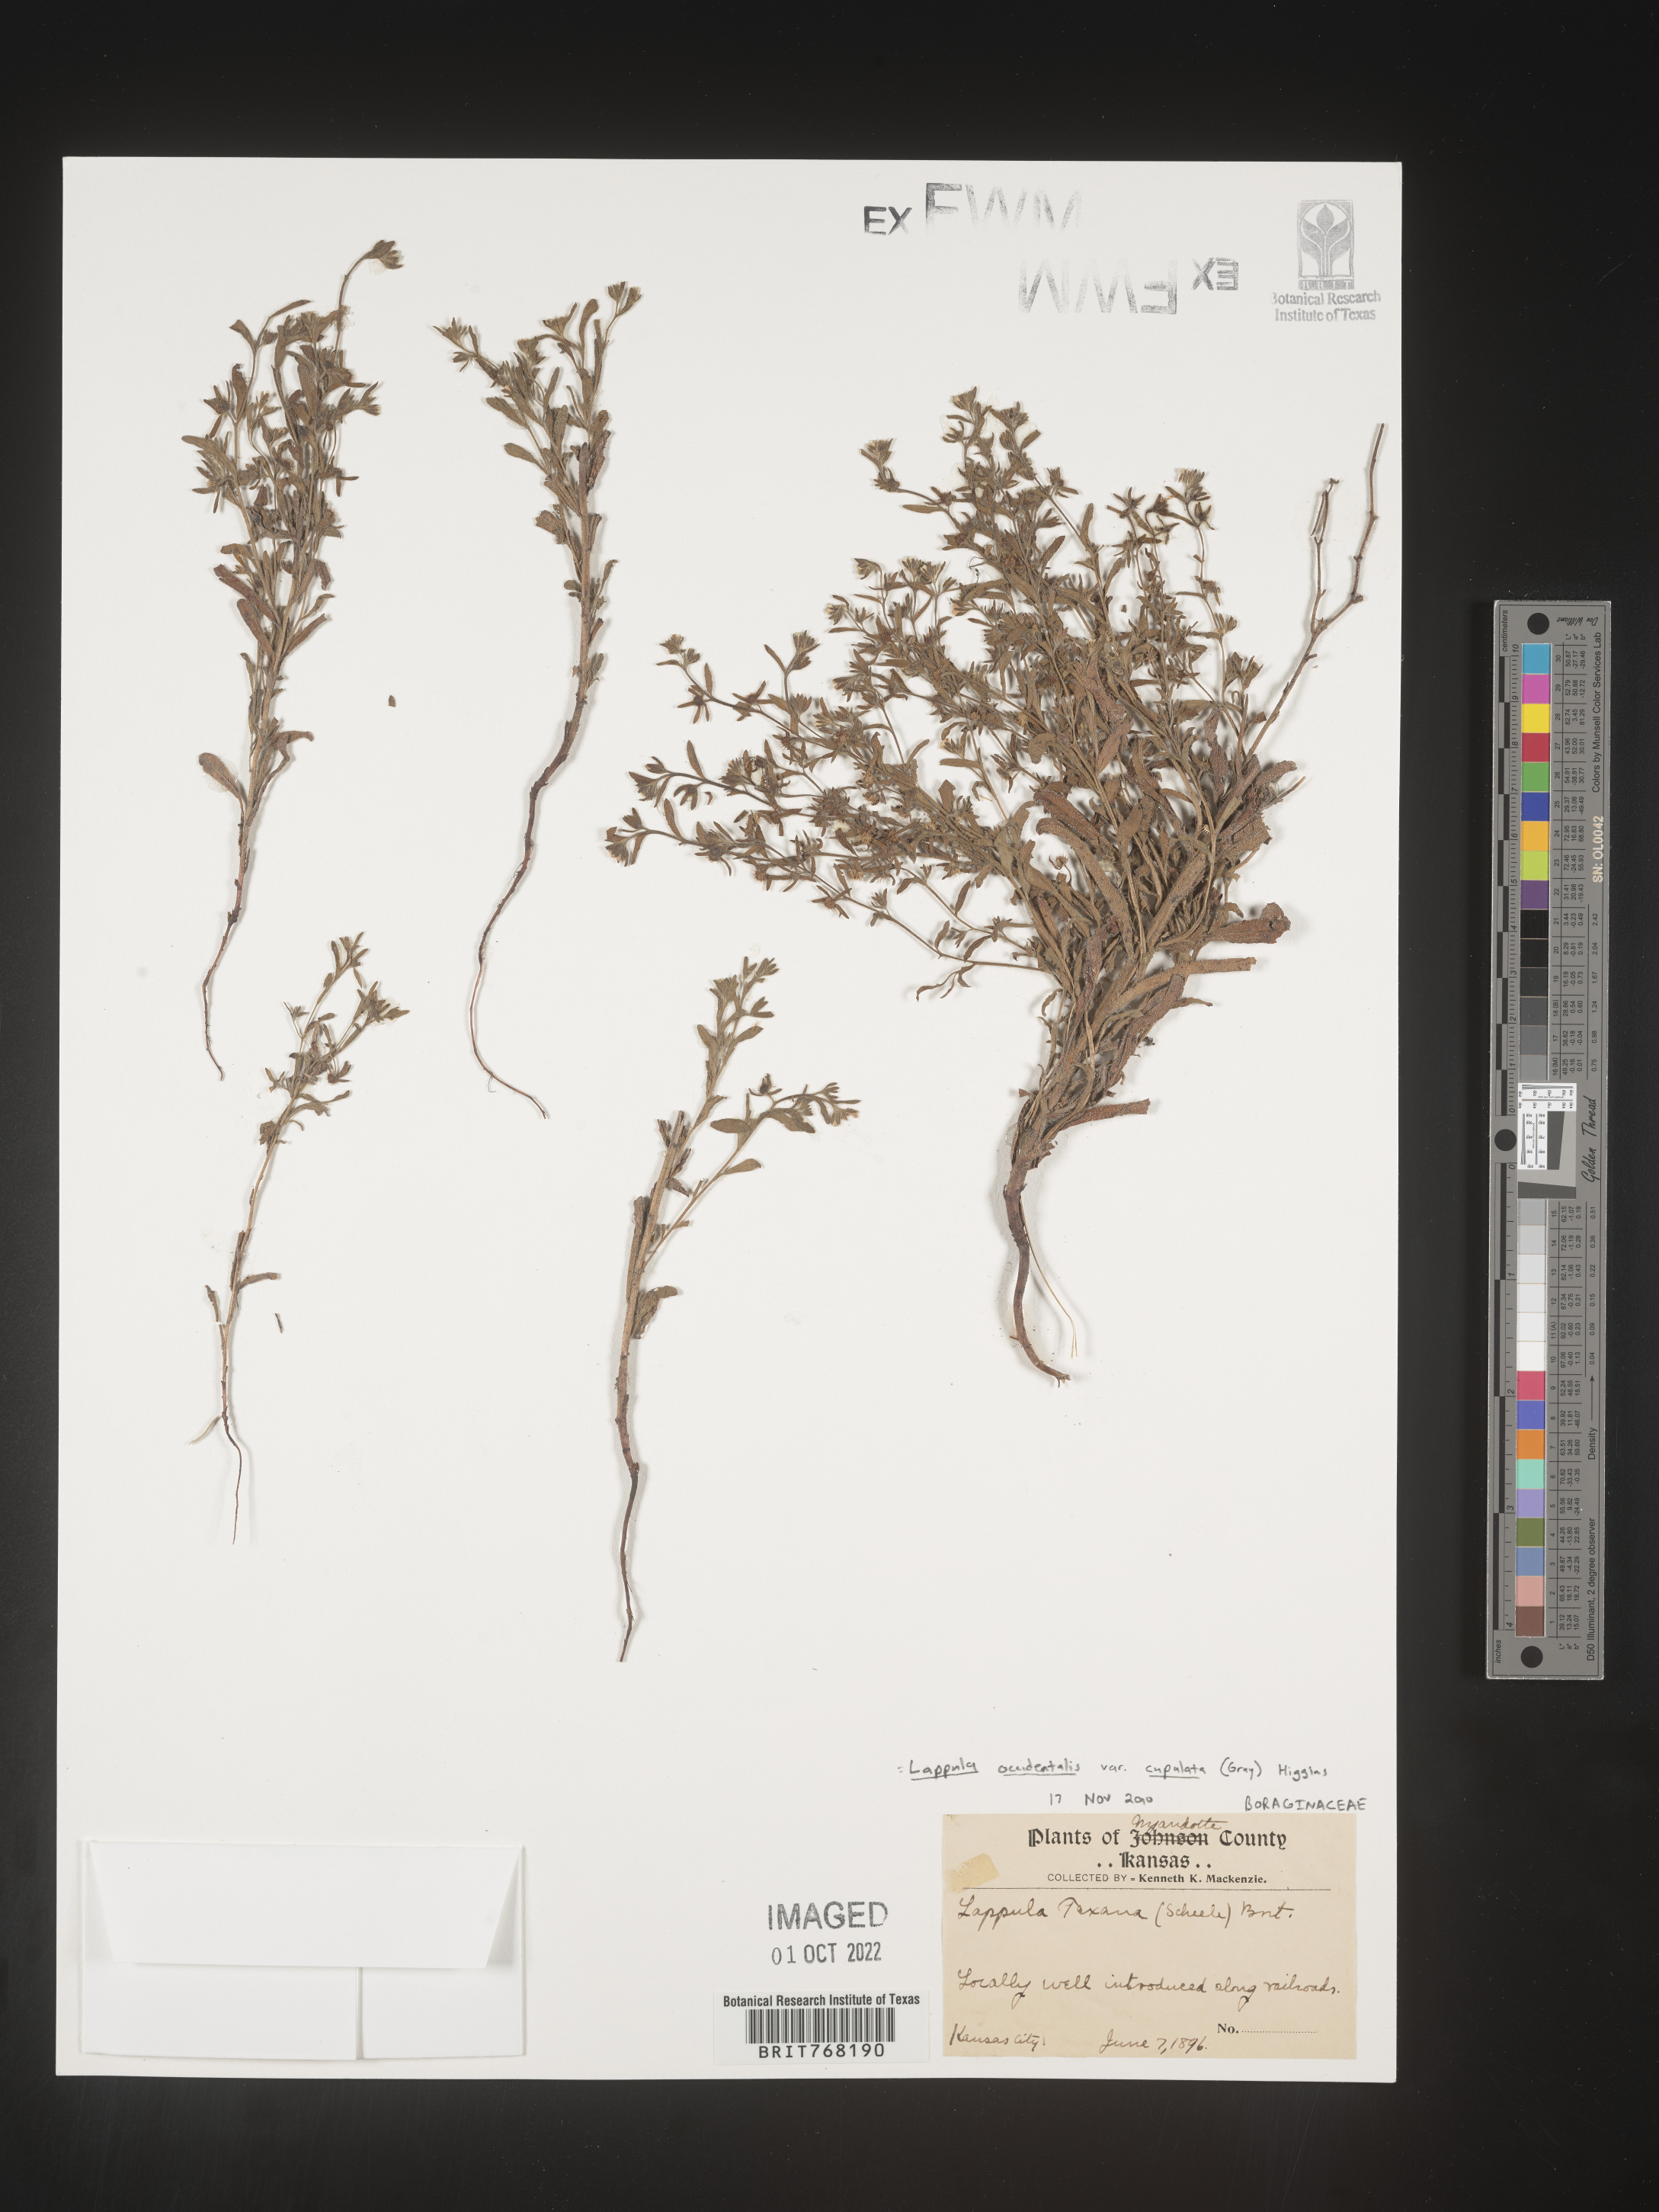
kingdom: Plantae
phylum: Tracheophyta
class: Magnoliopsida
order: Boraginales
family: Boraginaceae
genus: Lappula
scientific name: Lappula
